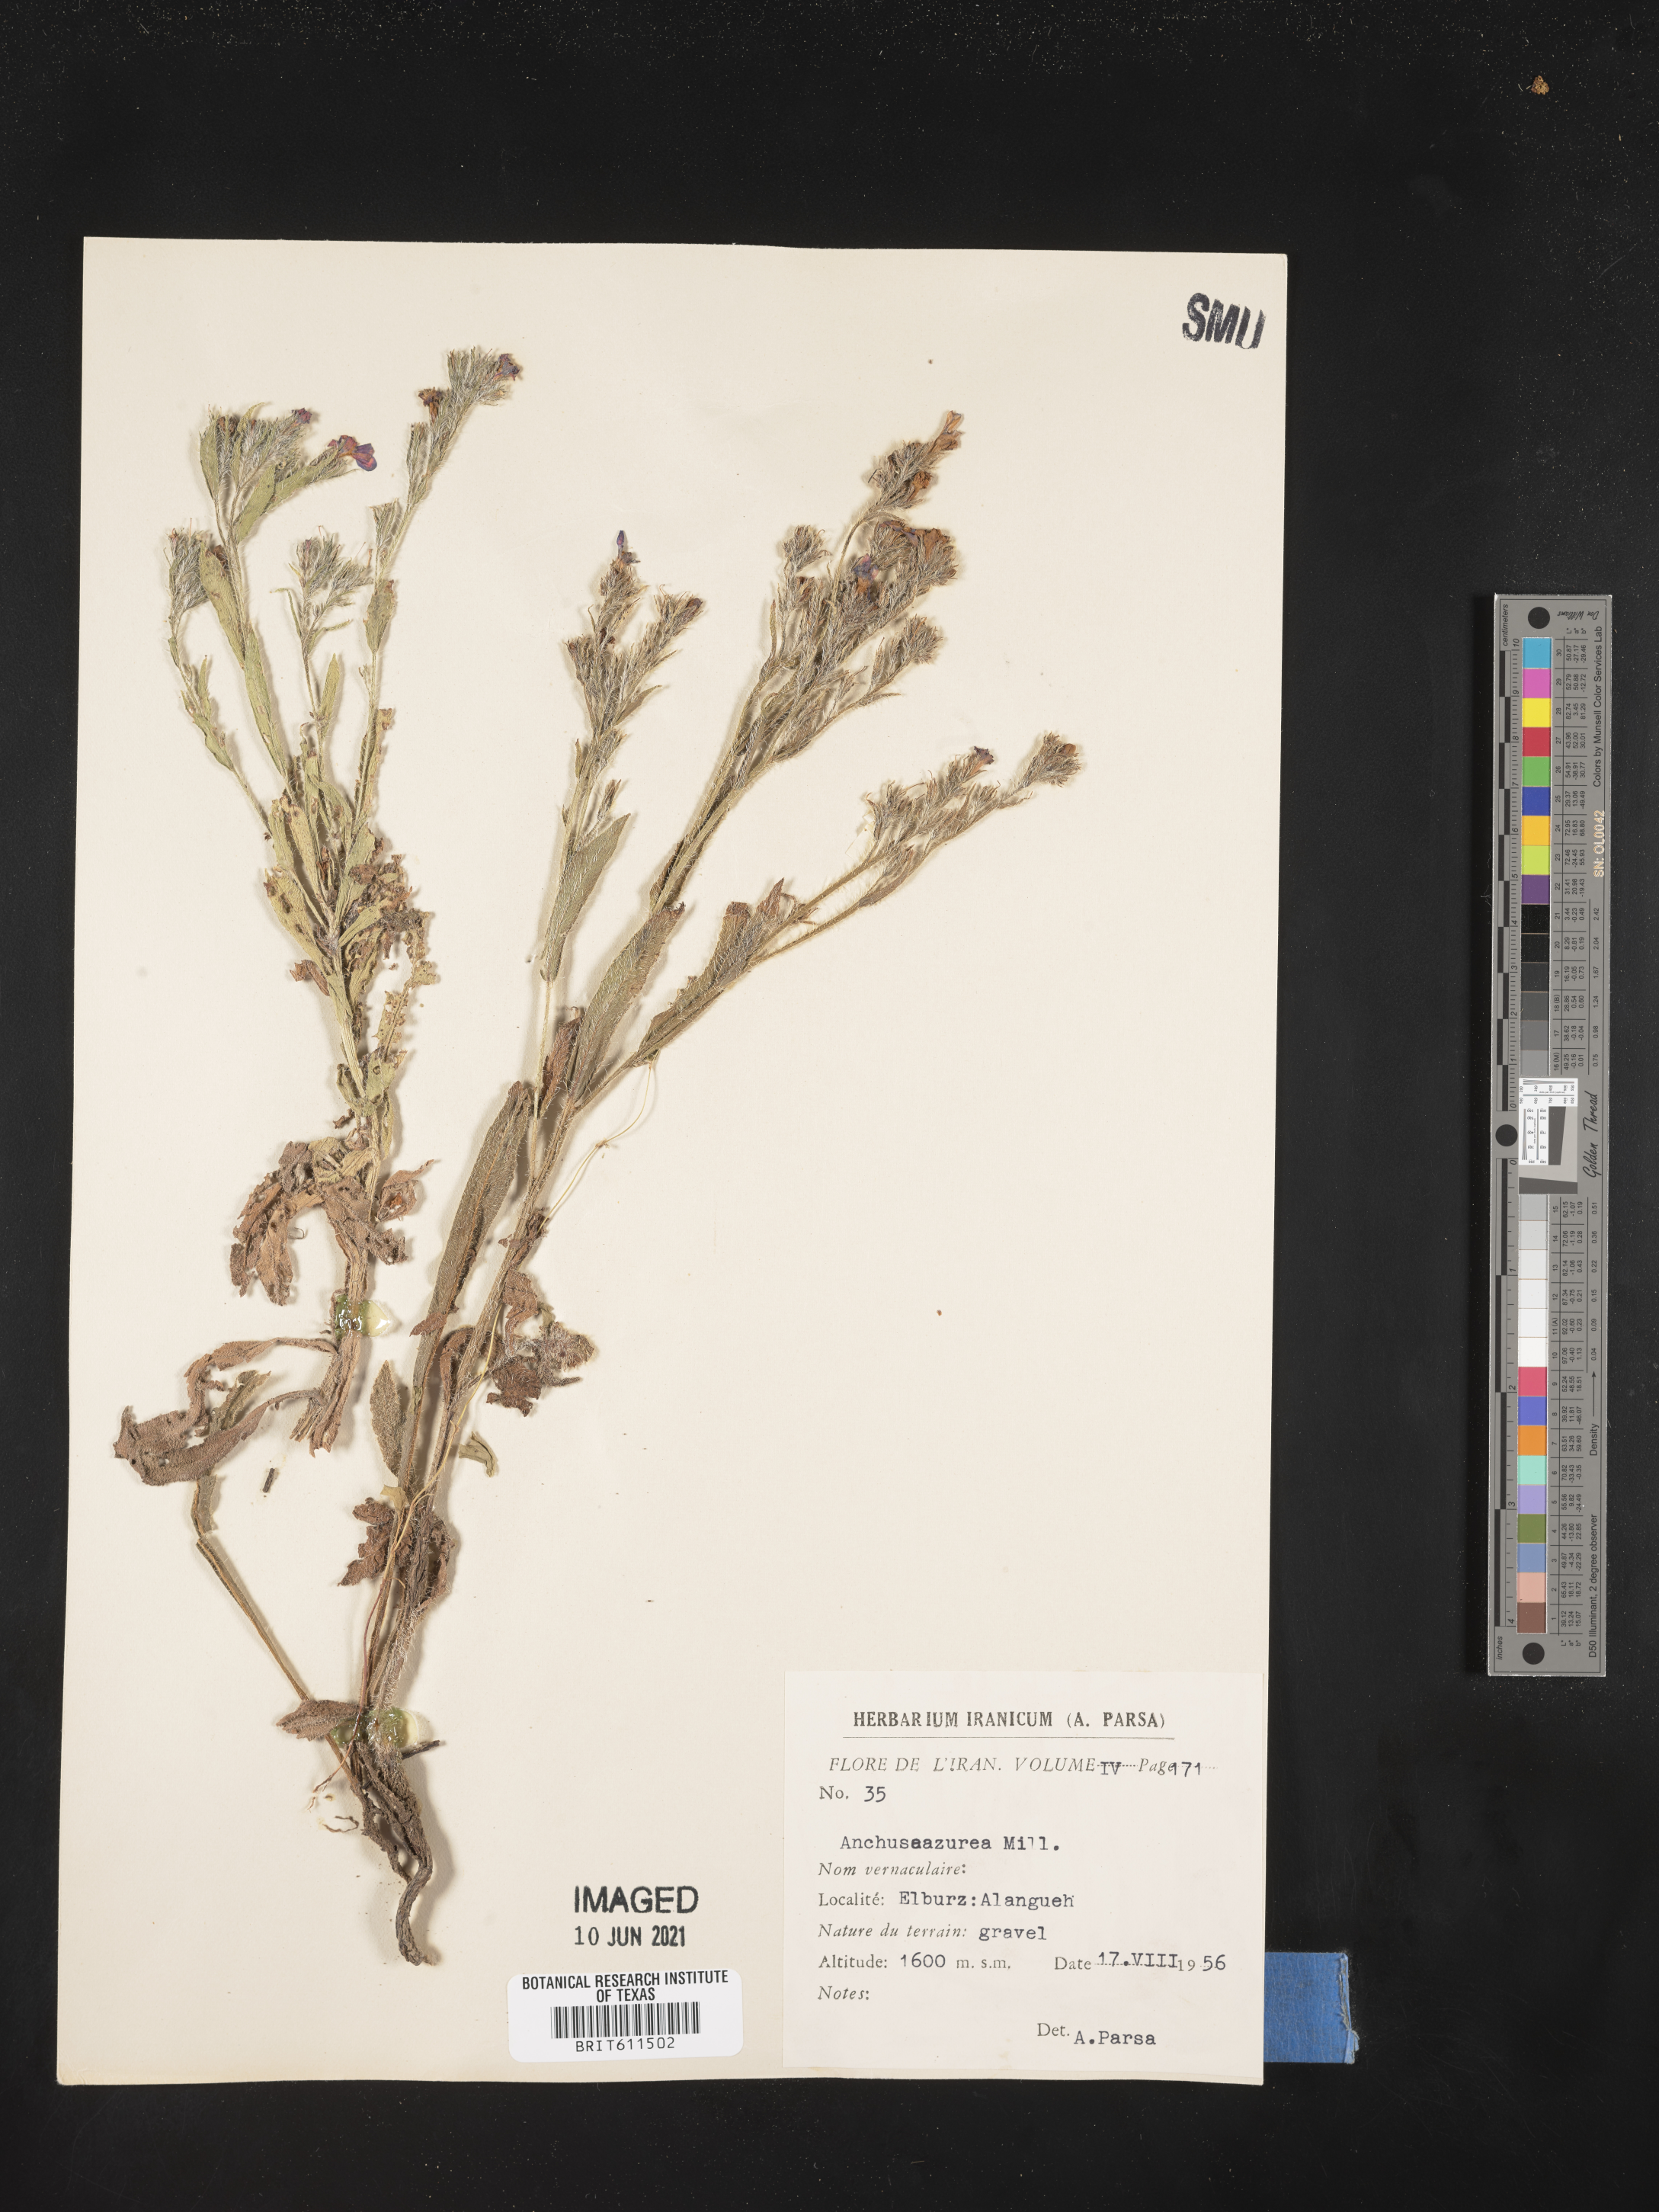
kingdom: Plantae
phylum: Tracheophyta
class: Magnoliopsida
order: Boraginales
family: Boraginaceae
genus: Anchusa
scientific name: Anchusa azurea
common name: Garden anchusa
